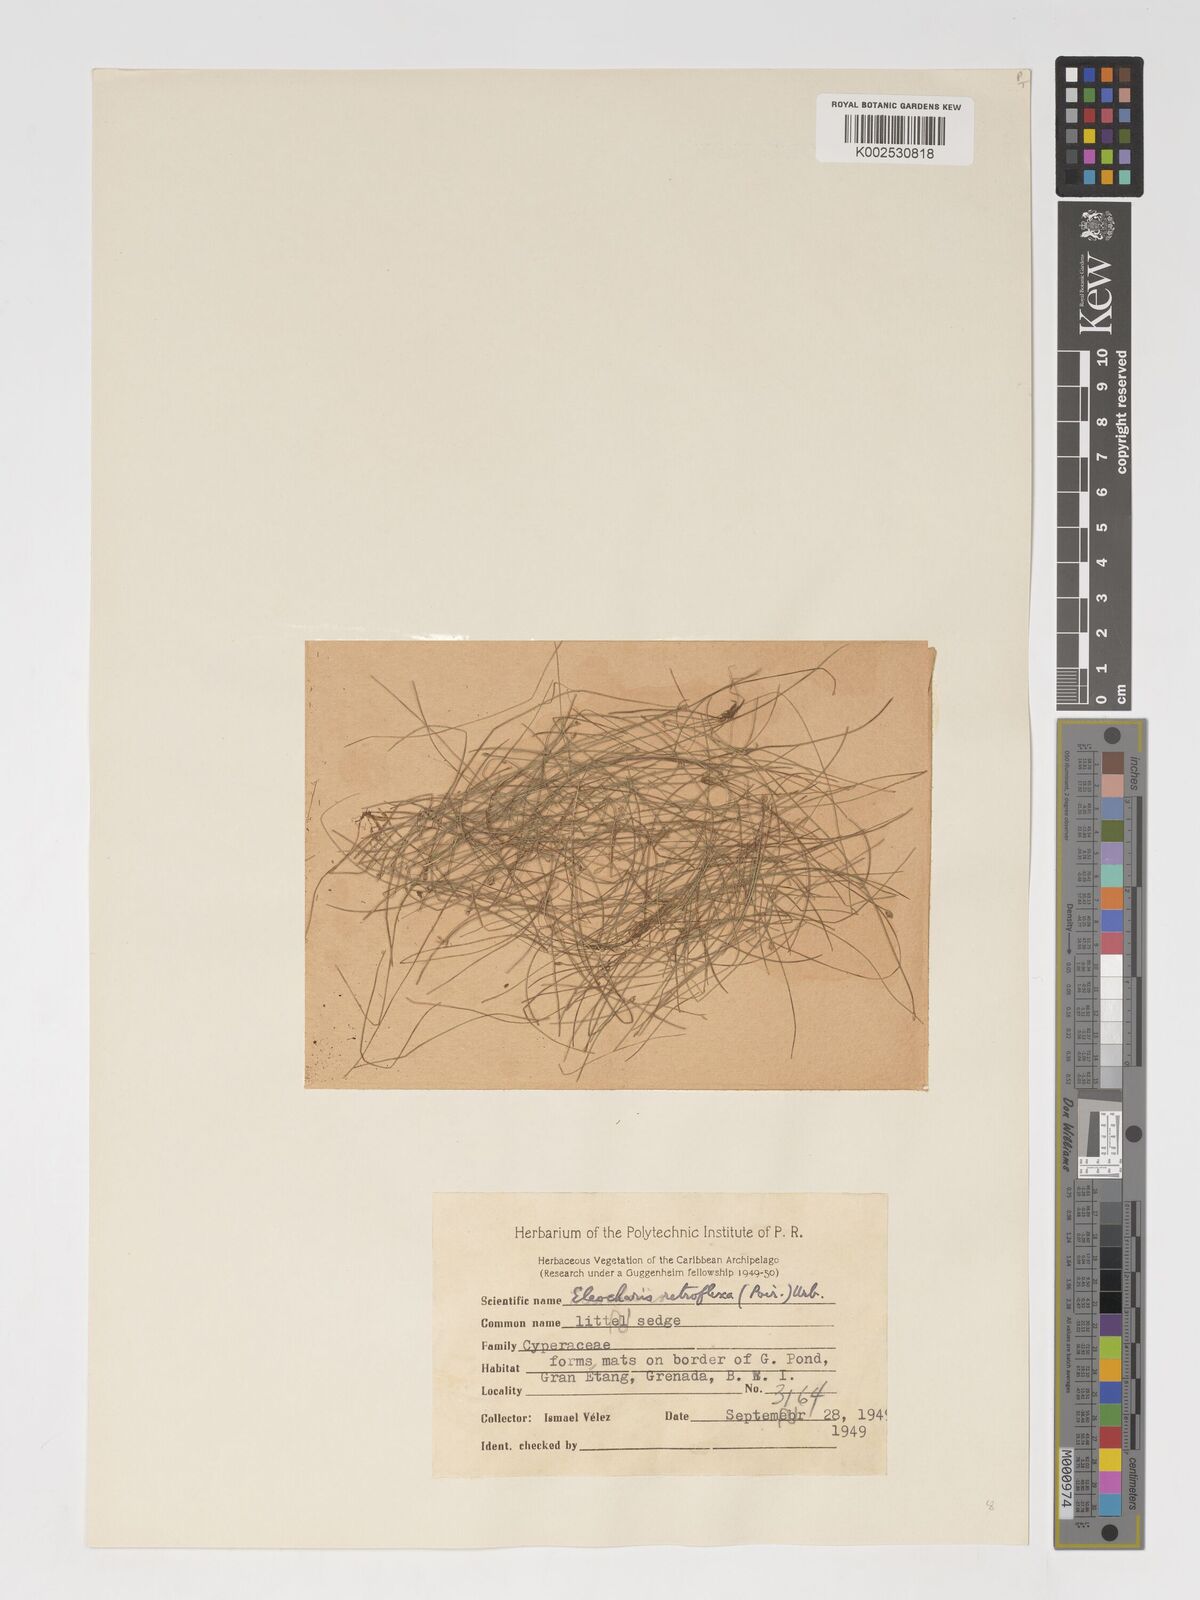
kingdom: Plantae
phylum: Tracheophyta
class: Liliopsida
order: Poales
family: Cyperaceae
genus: Eleocharis
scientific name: Eleocharis acicularis
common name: Needle spike-rush
